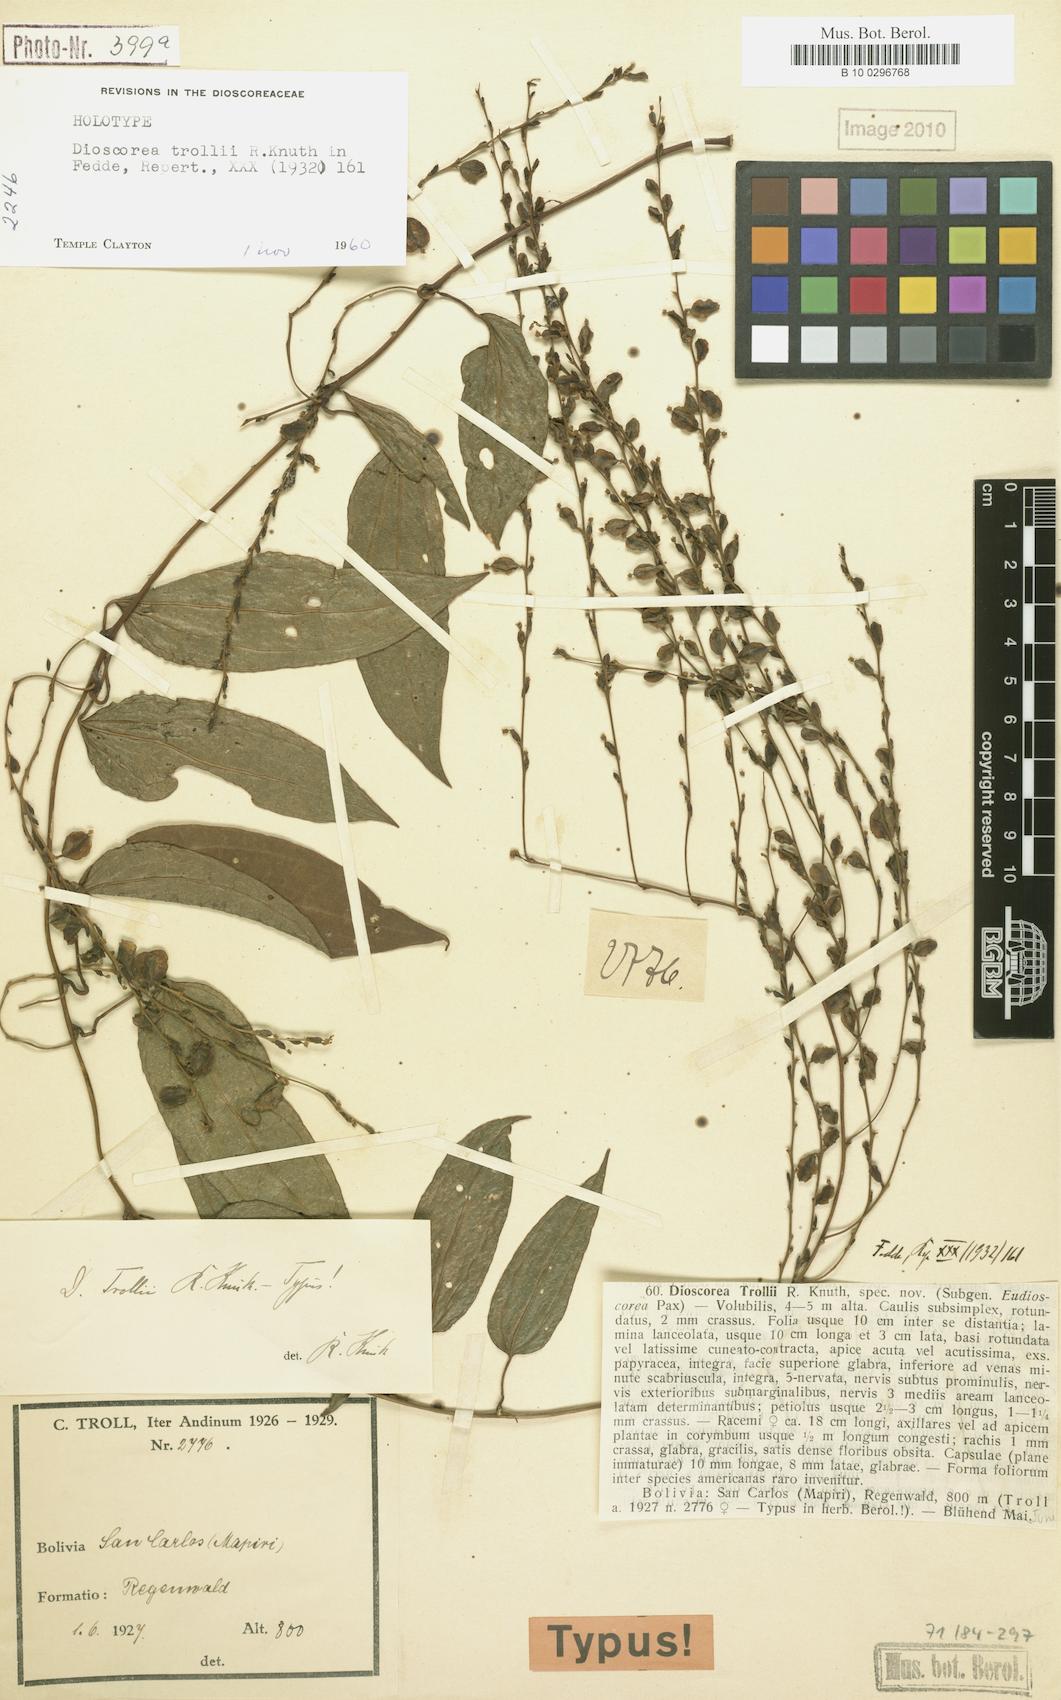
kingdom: Plantae
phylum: Tracheophyta
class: Liliopsida
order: Dioscoreales
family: Dioscoreaceae
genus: Dioscorea
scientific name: Dioscorea trollii
